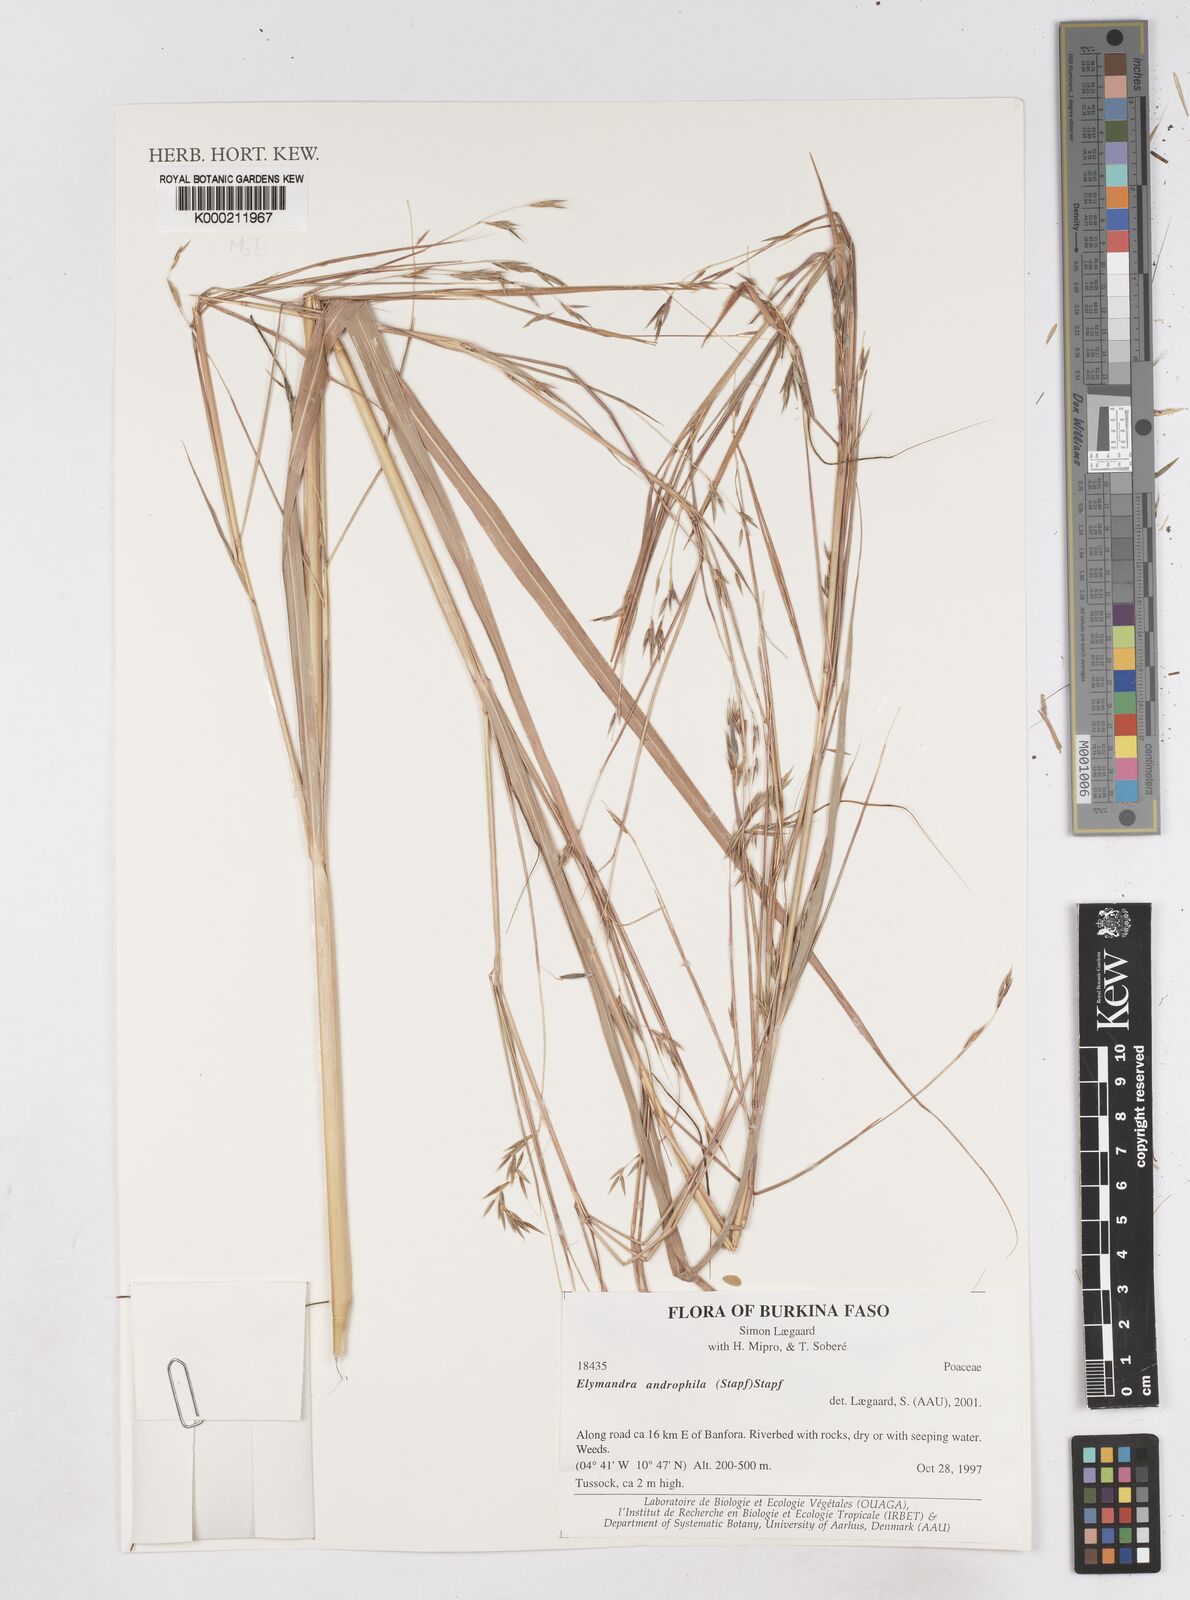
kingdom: Plantae
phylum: Tracheophyta
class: Liliopsida
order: Poales
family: Poaceae
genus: Elymandra
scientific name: Elymandra androphila
